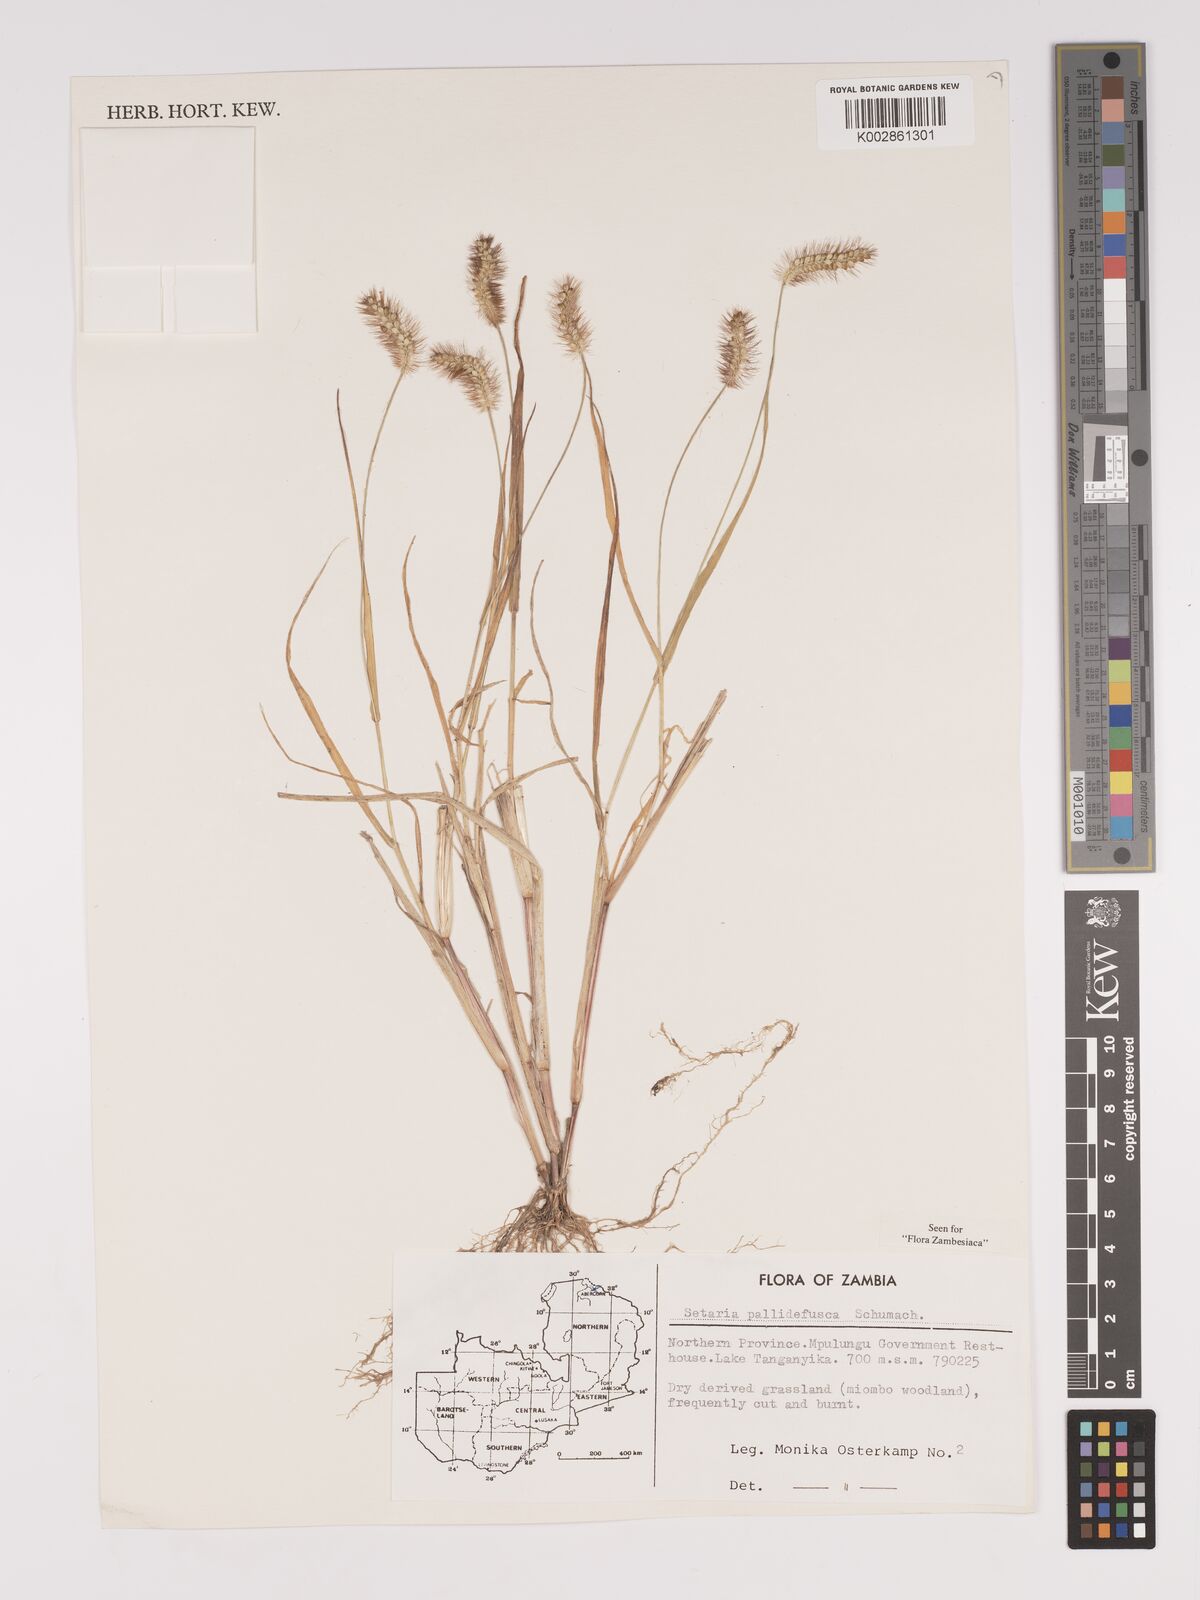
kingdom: Plantae
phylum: Tracheophyta
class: Liliopsida
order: Poales
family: Poaceae
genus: Setaria
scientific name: Setaria pumila
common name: Yellow bristle-grass
